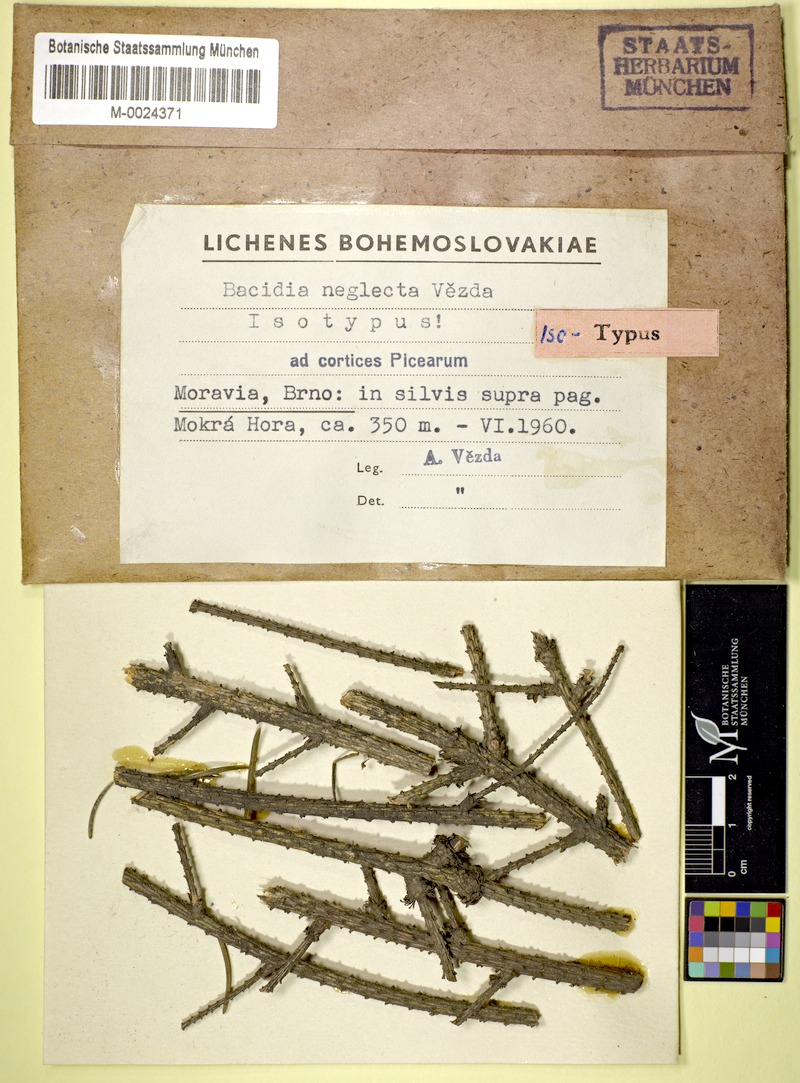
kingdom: Fungi
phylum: Ascomycota
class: Lecanoromycetes
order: Lecanorales
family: Ramalinaceae
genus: Bacidina
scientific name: Bacidina neglecta
